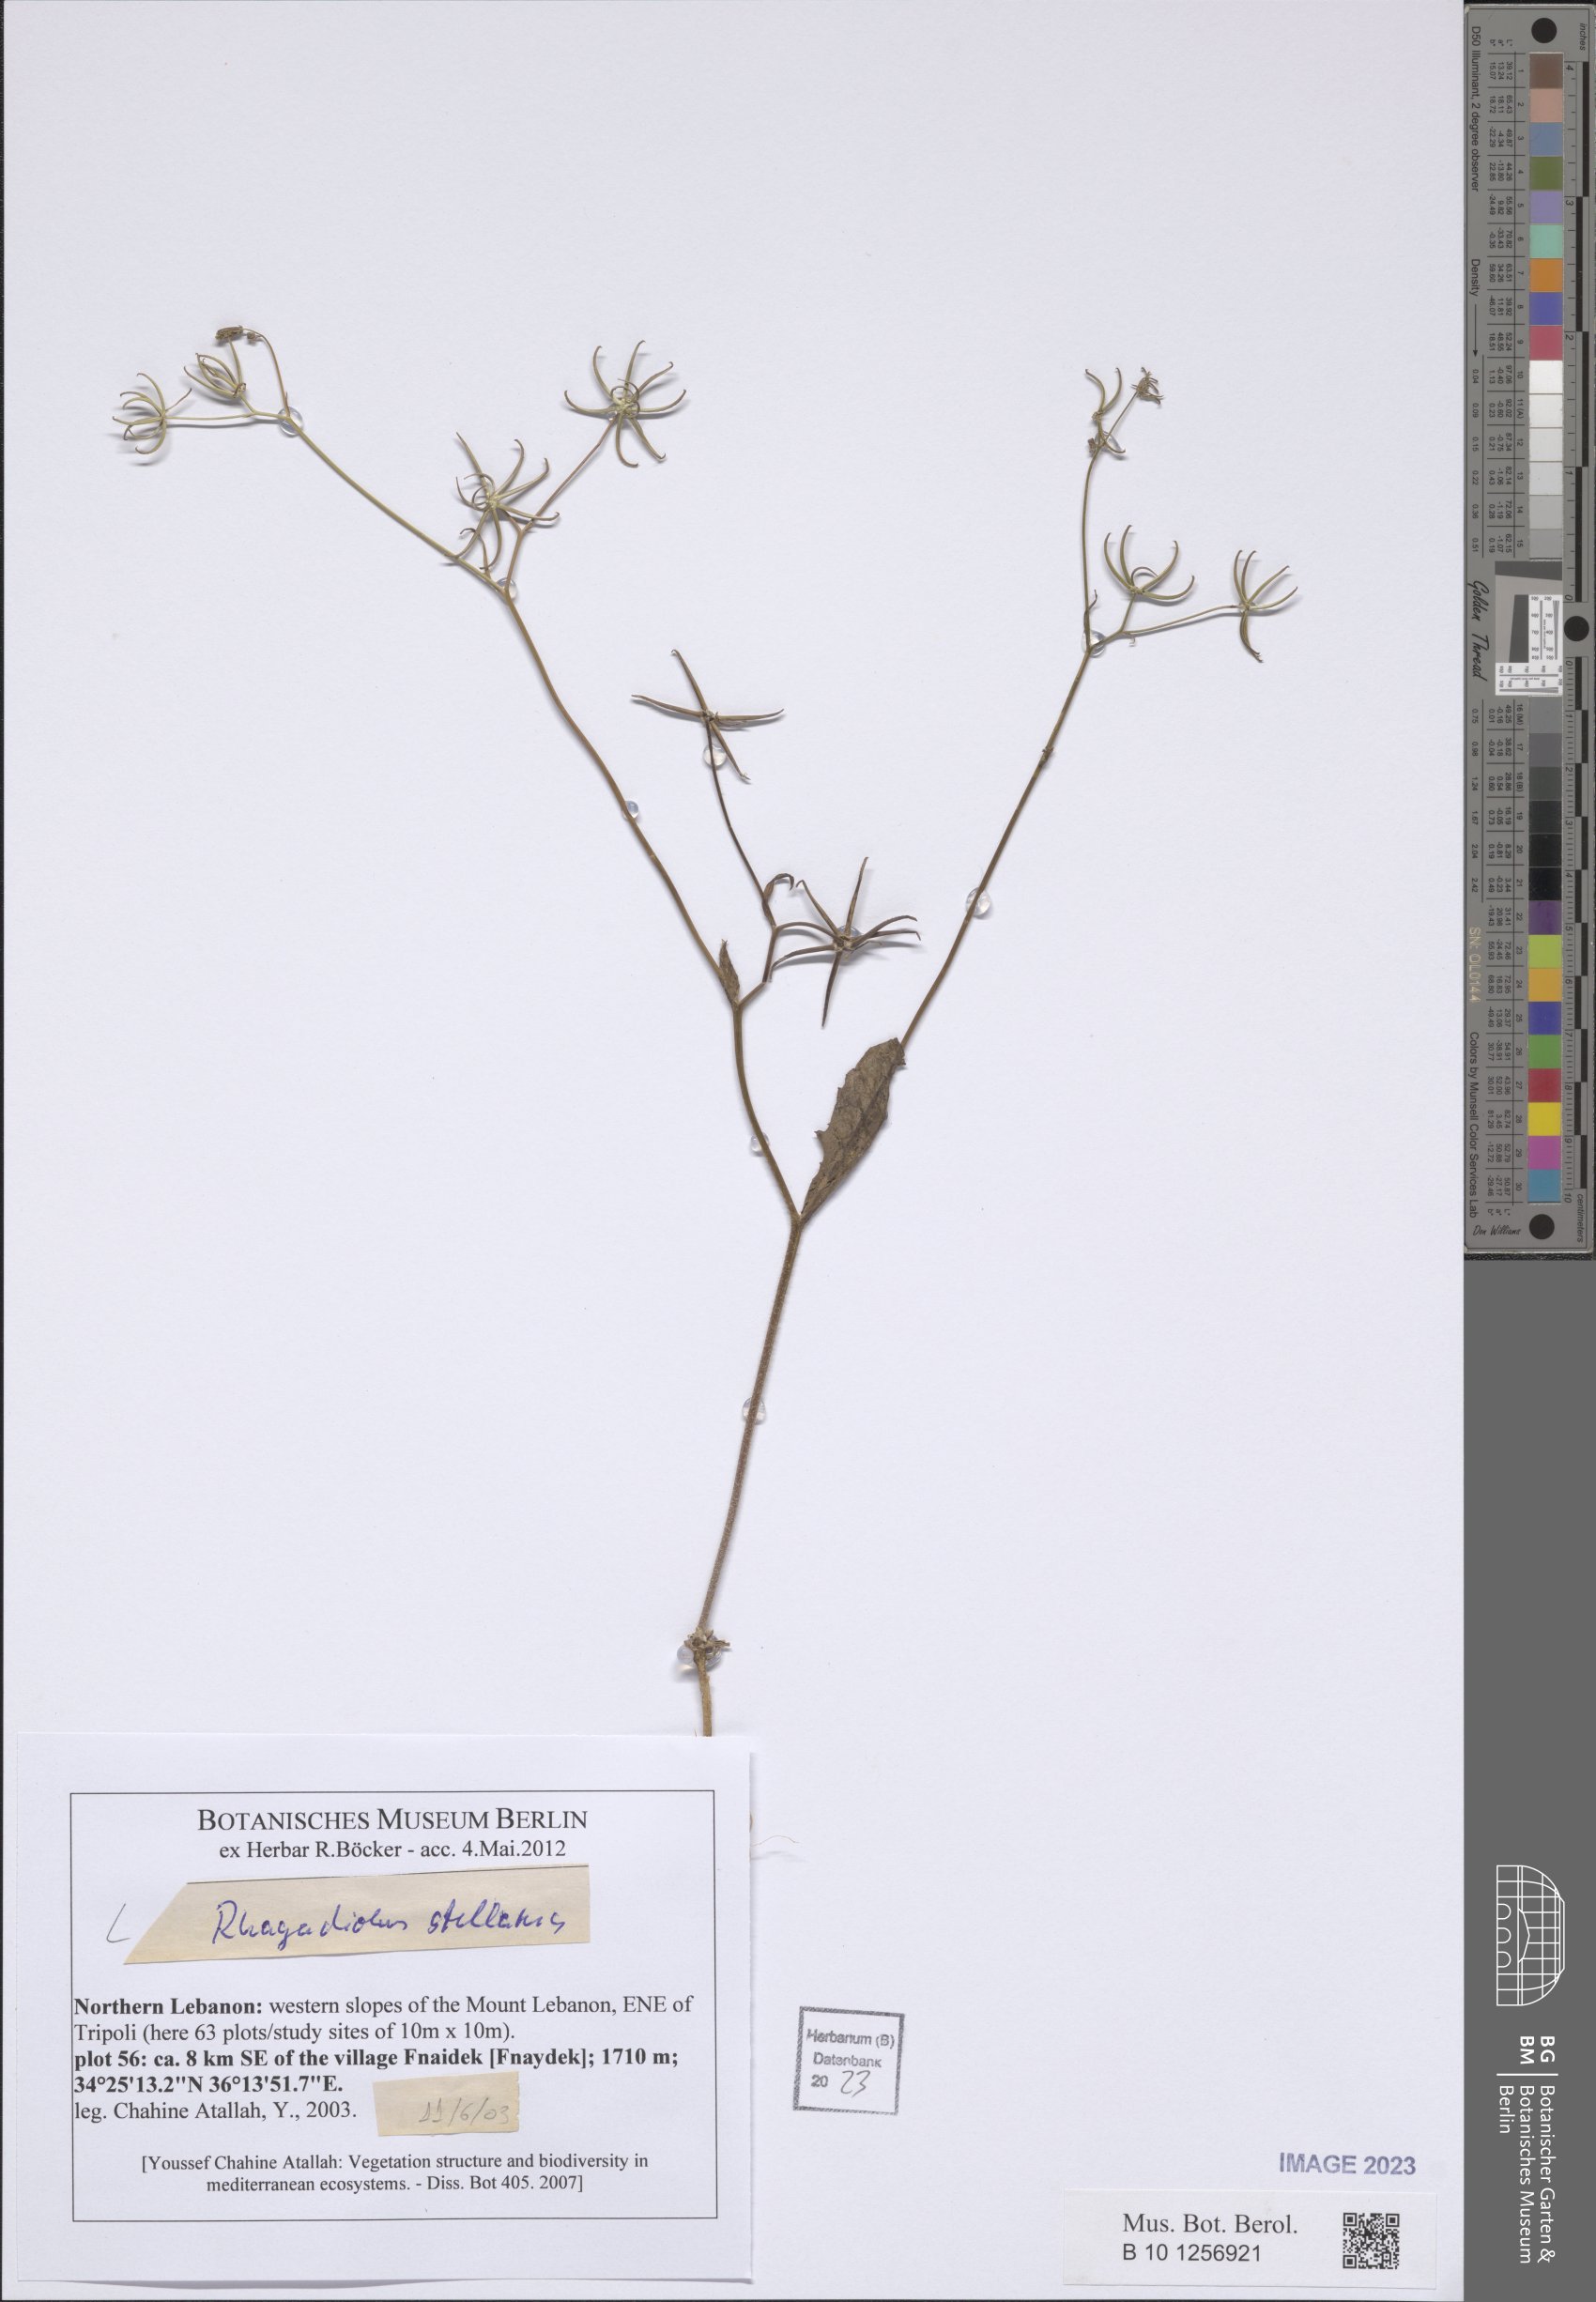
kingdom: Plantae
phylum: Tracheophyta
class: Magnoliopsida
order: Asterales
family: Asteraceae
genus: Rhagadiolus
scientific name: Rhagadiolus stellatus
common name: Star hawkbit
